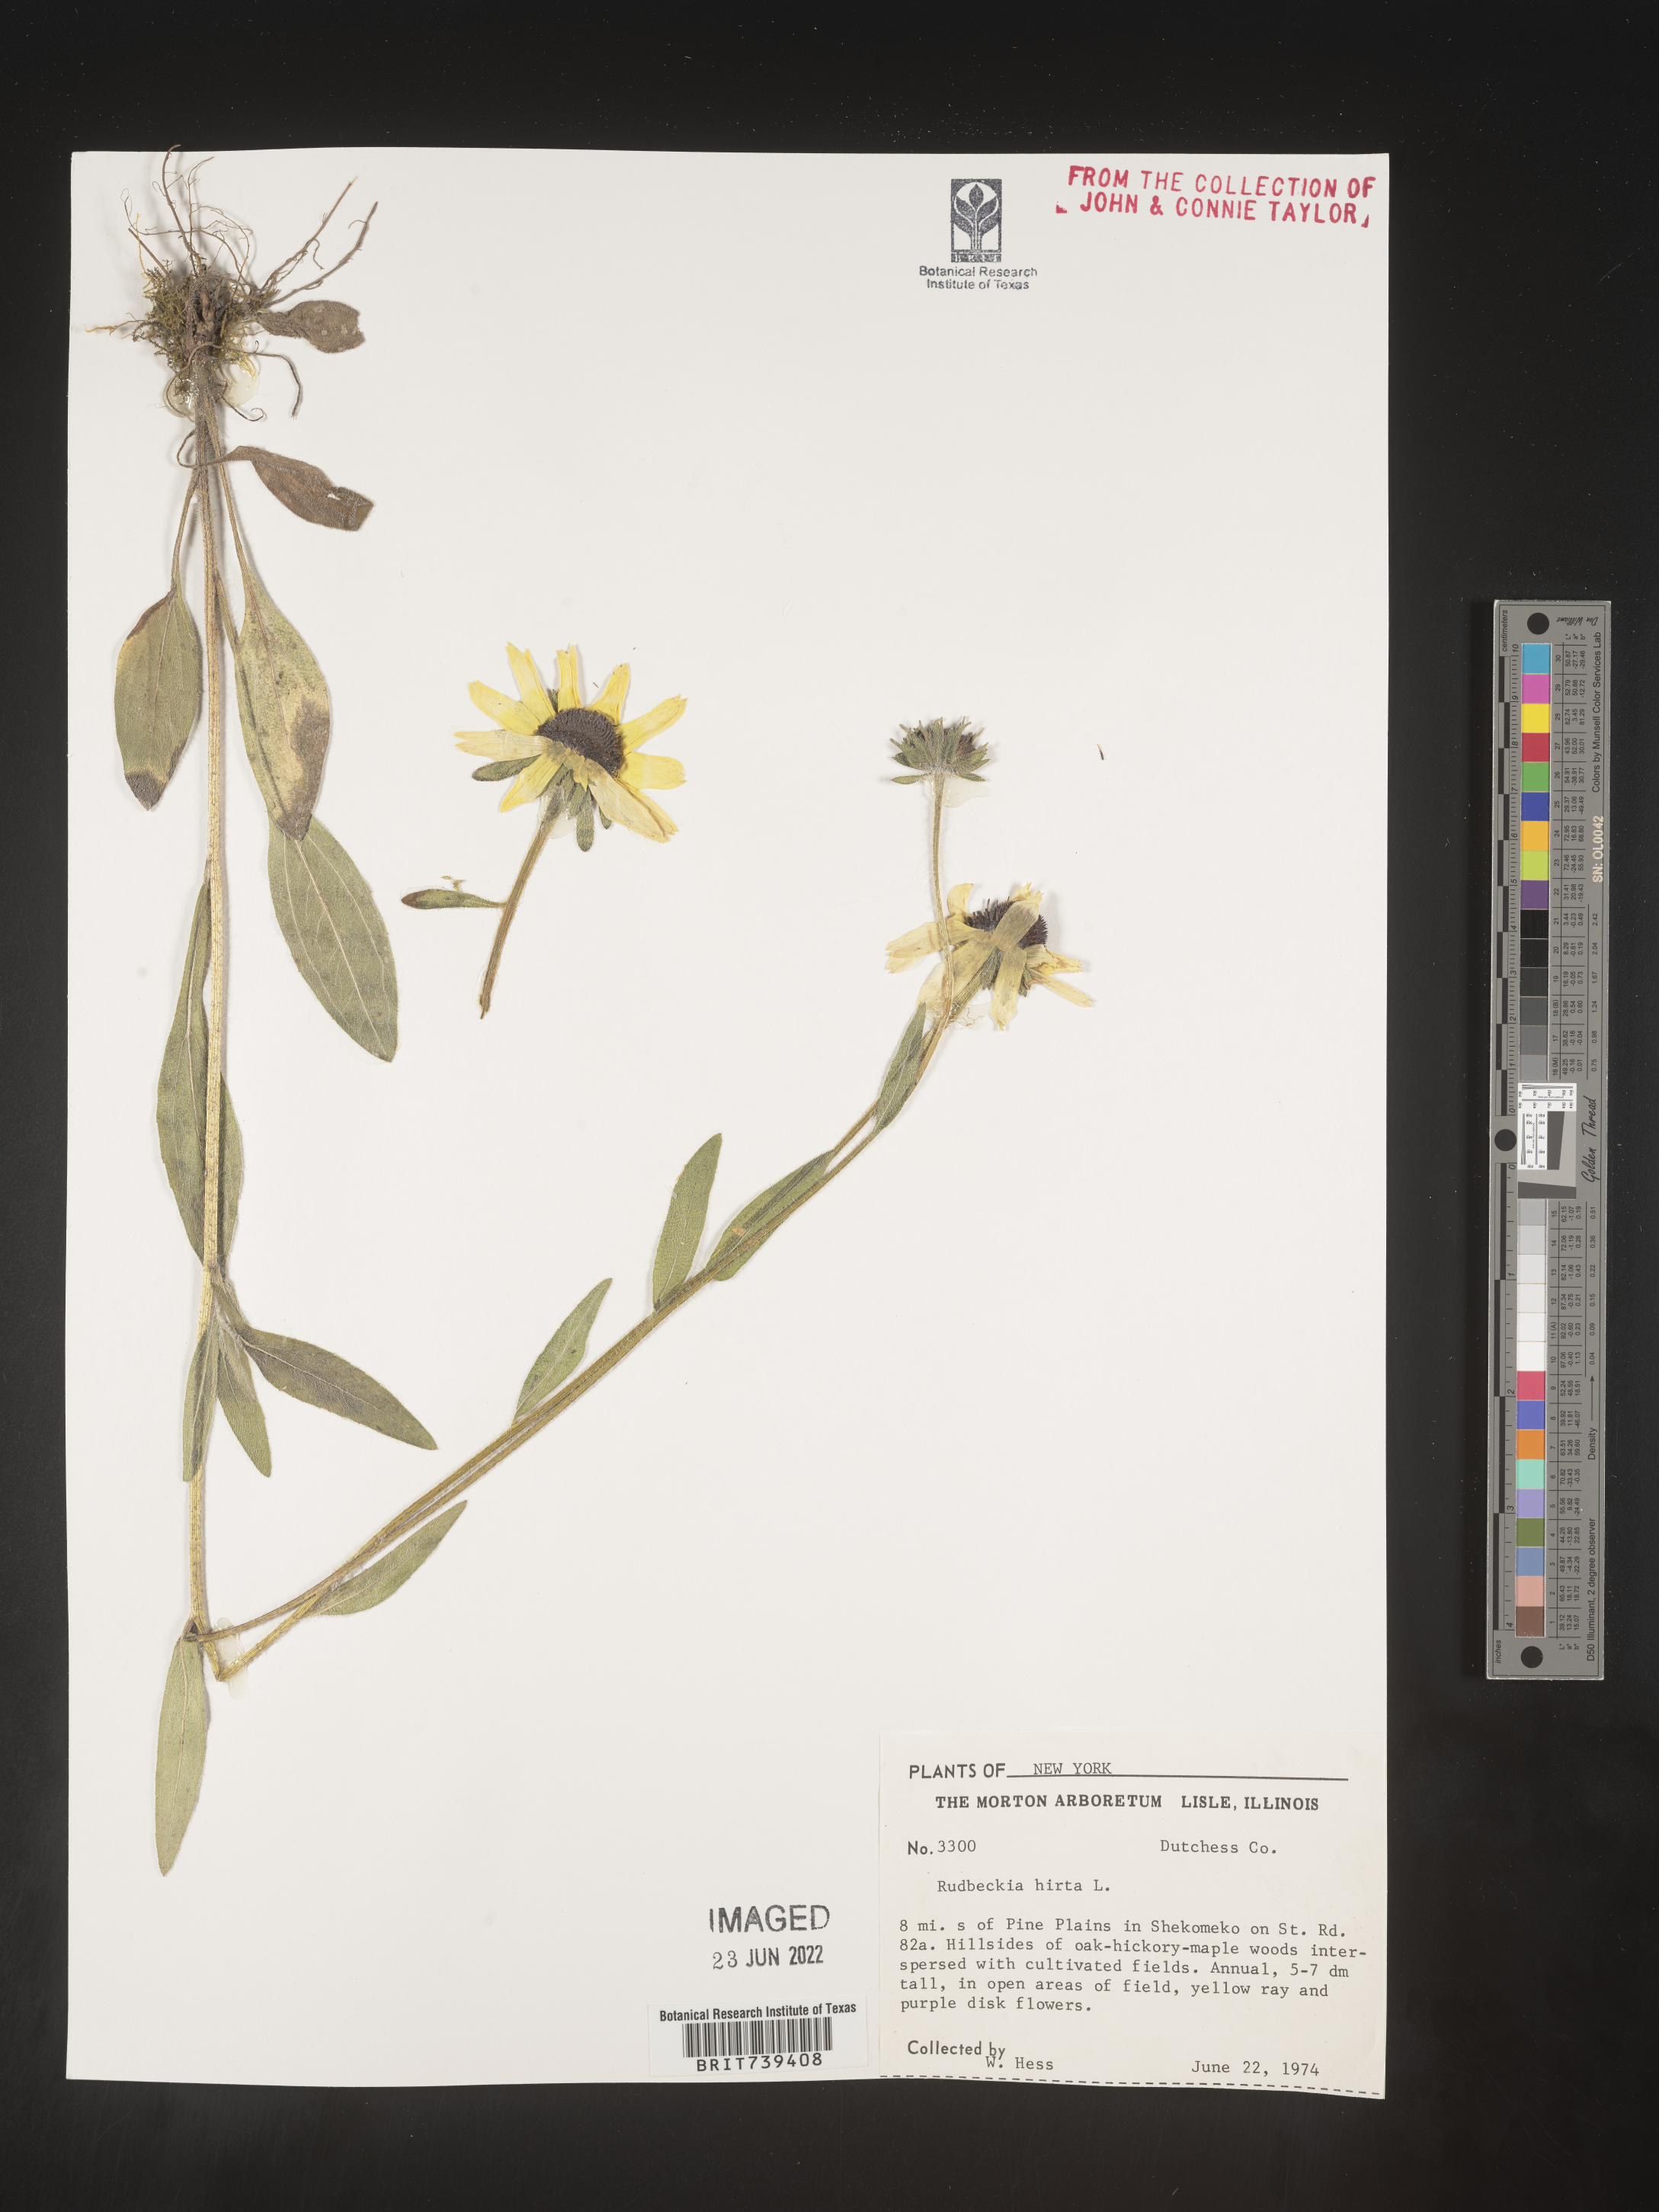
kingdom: Plantae
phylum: Tracheophyta
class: Magnoliopsida
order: Asterales
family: Asteraceae
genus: Rudbeckia
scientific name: Rudbeckia hirta
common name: Black-eyed-susan
